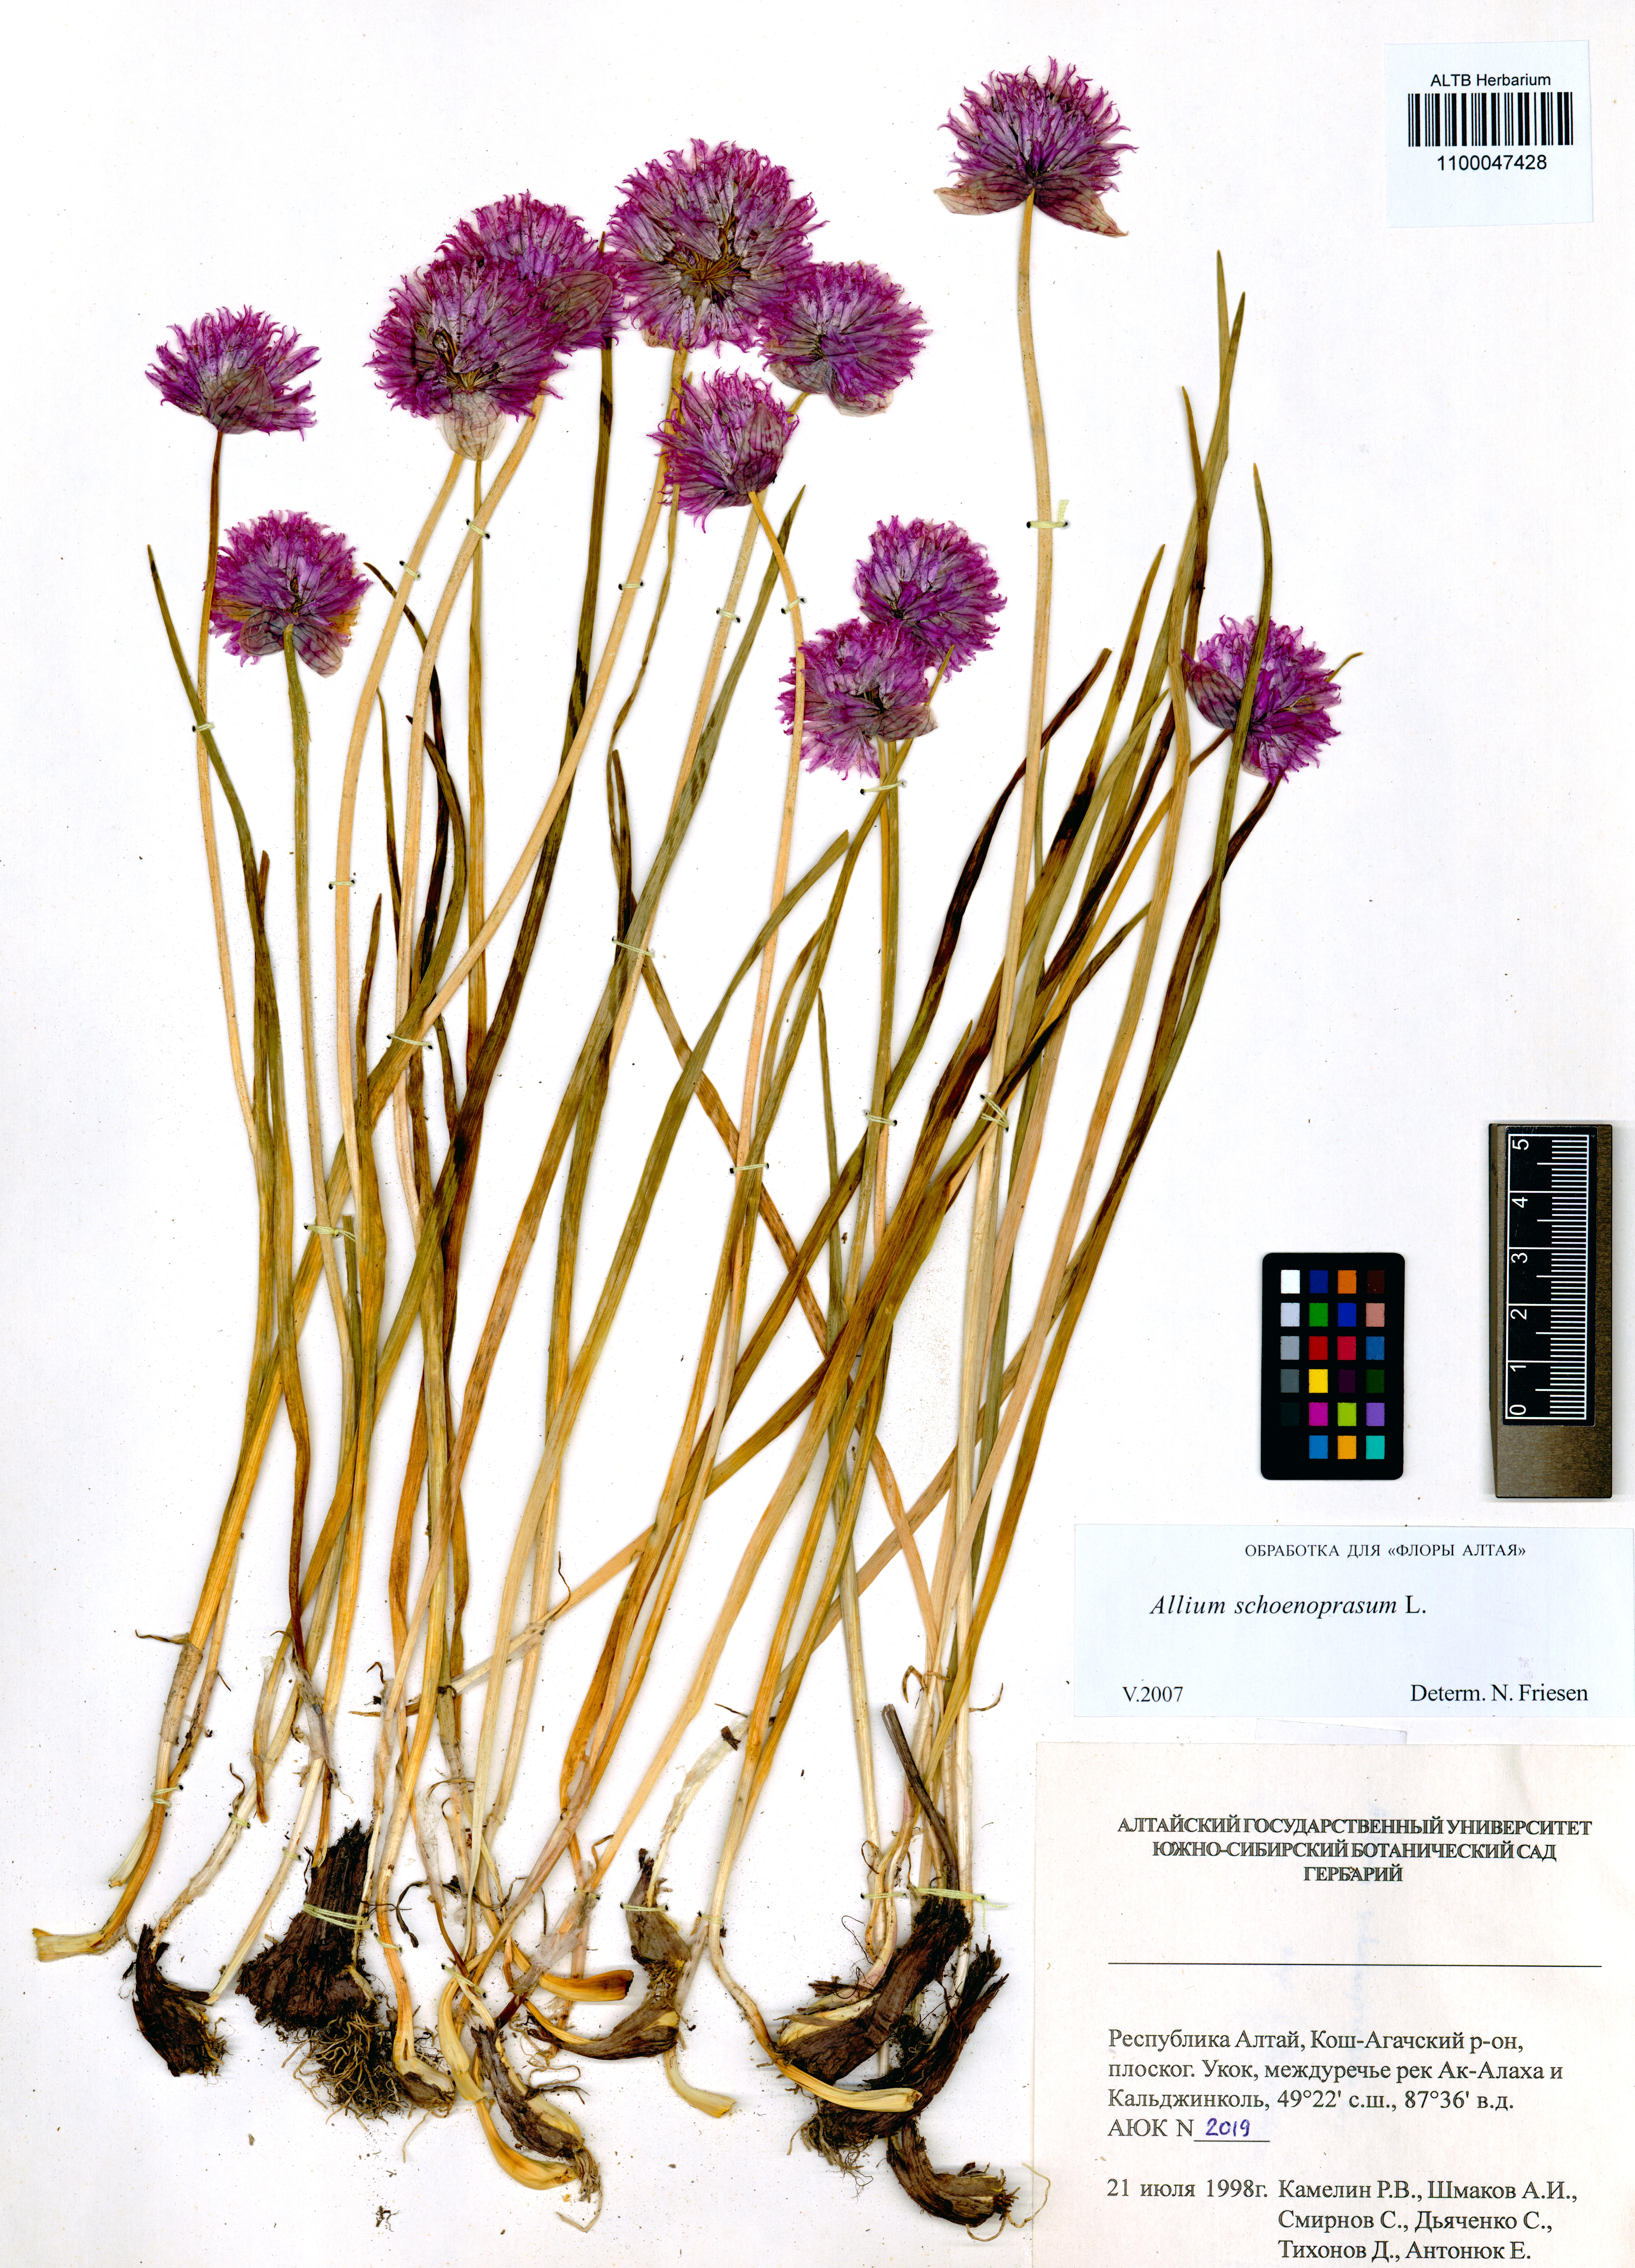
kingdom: Plantae
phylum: Tracheophyta
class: Liliopsida
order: Asparagales
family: Amaryllidaceae
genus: Allium
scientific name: Allium schoenoprasum
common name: Chives
